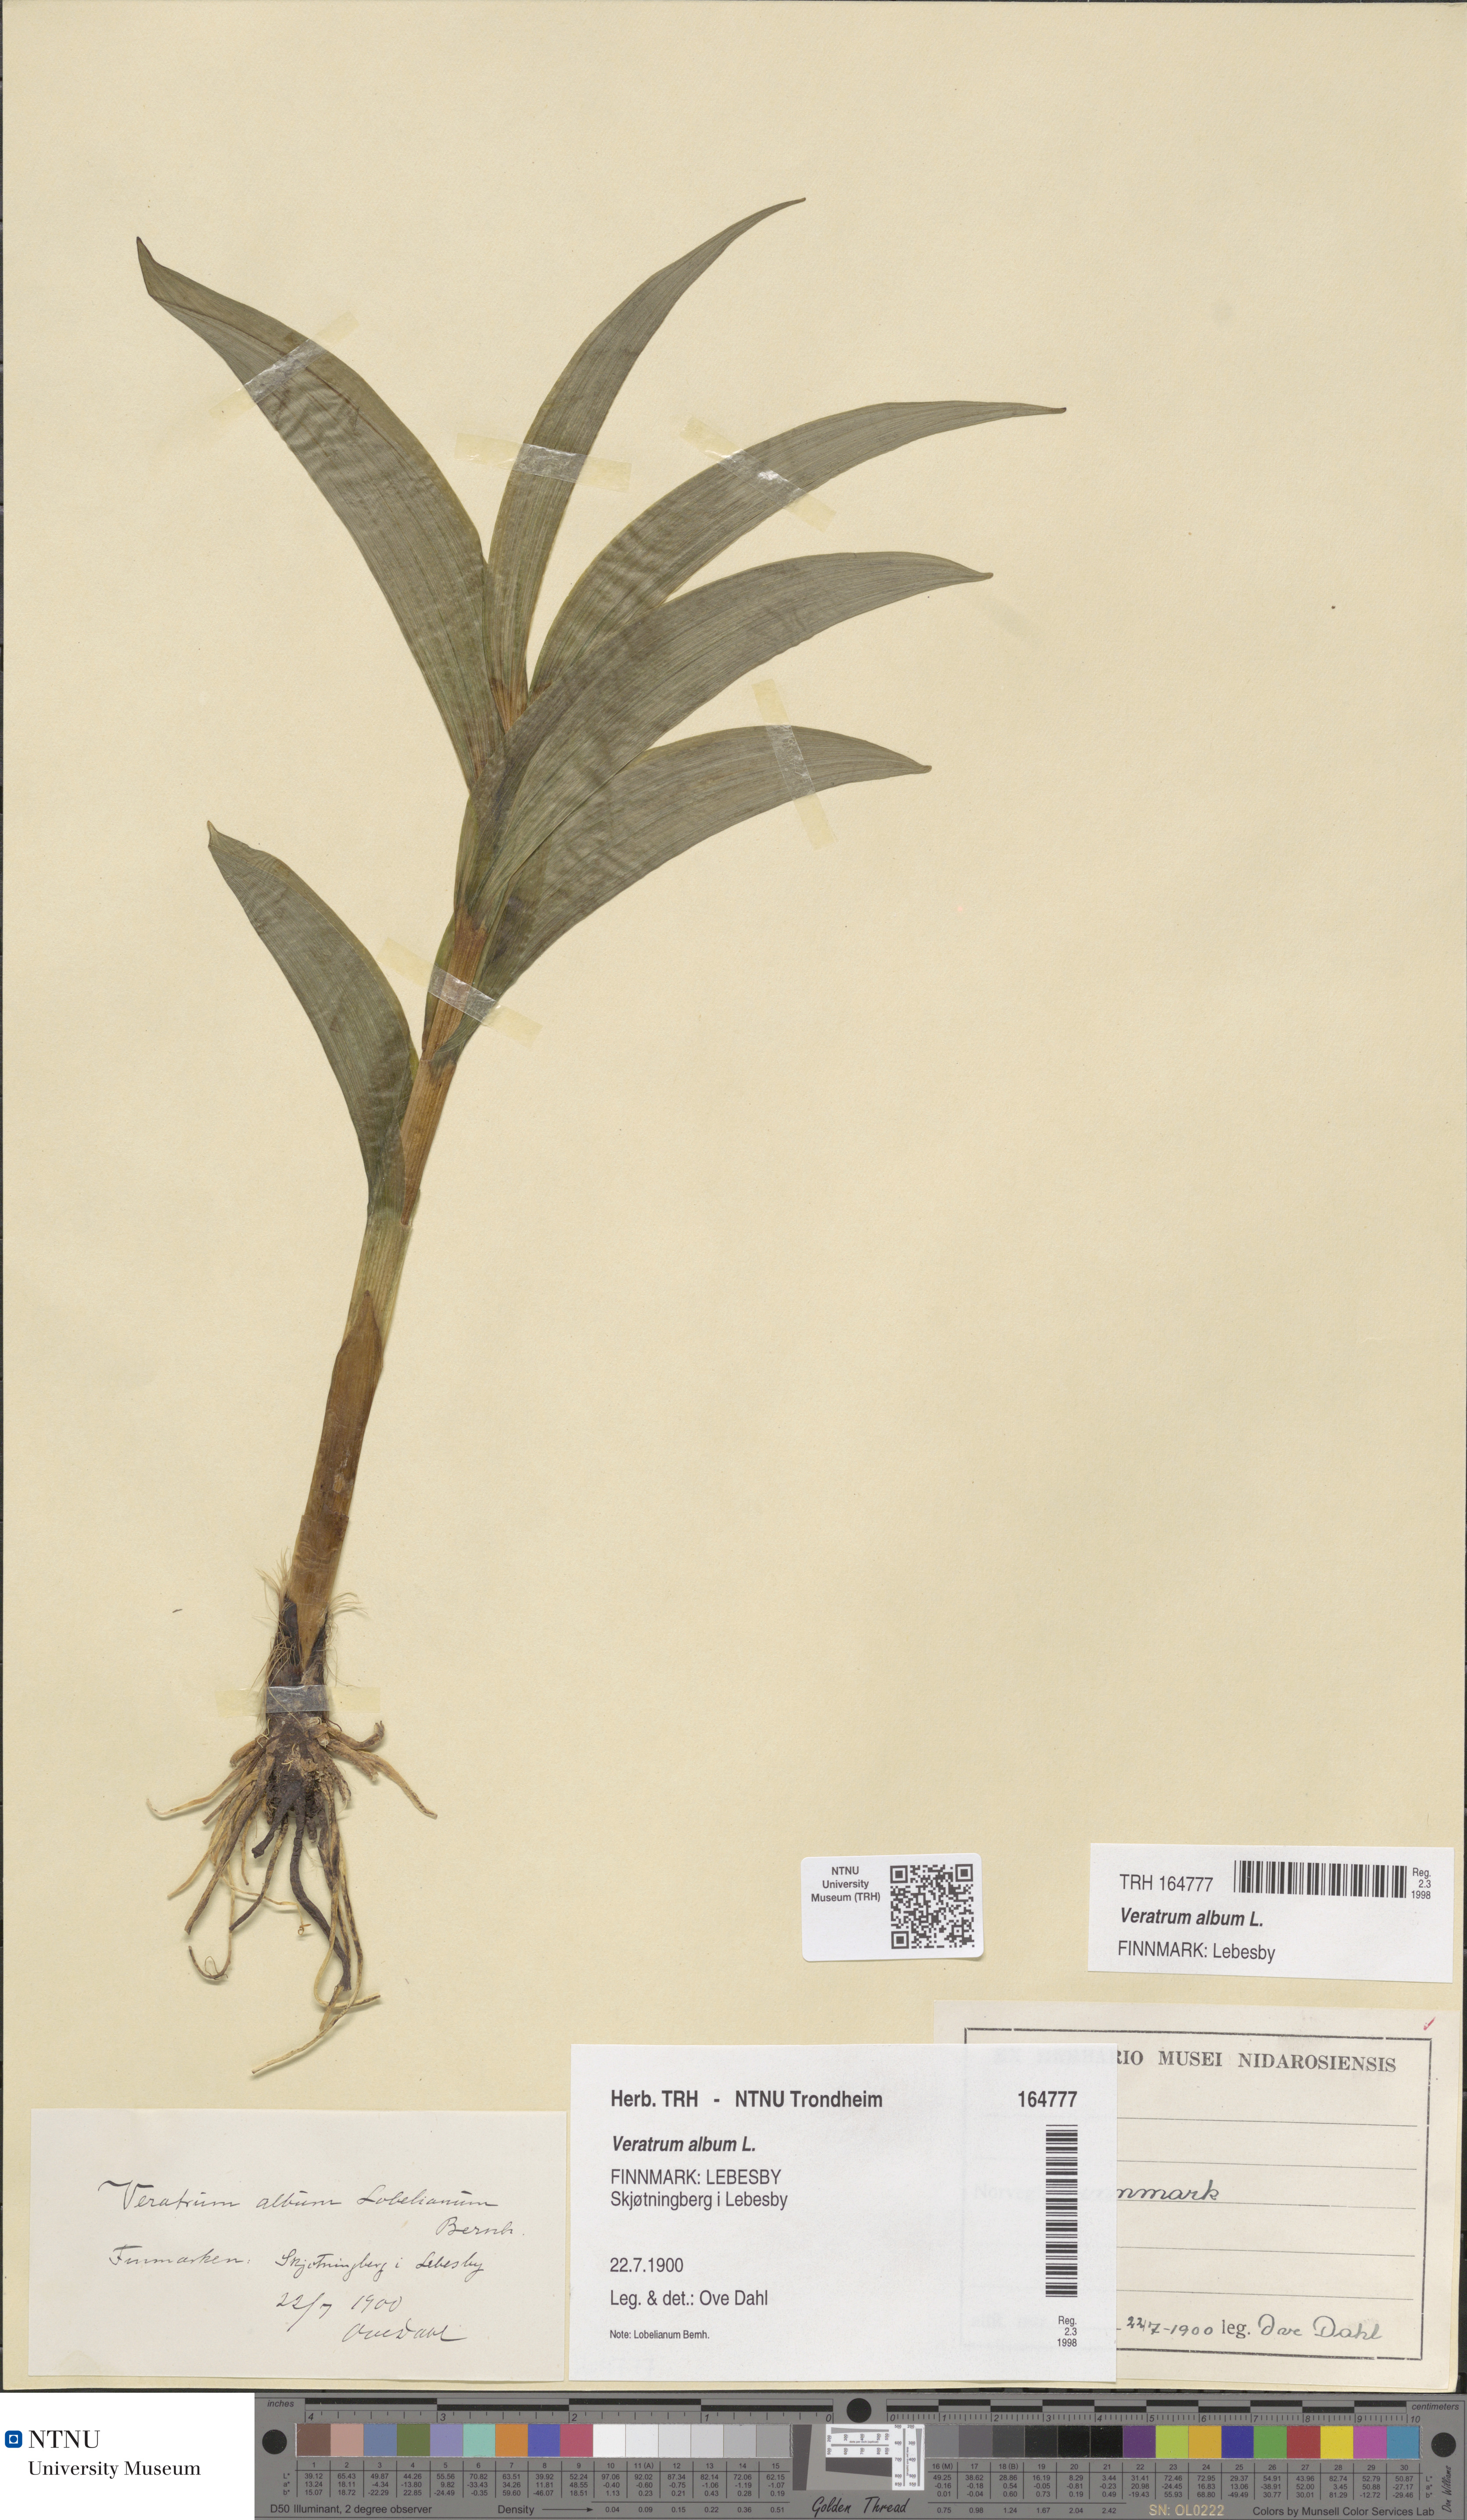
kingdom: Plantae
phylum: Tracheophyta
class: Liliopsida
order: Liliales
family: Melanthiaceae
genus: Veratrum
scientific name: Veratrum album
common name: White veratrum
